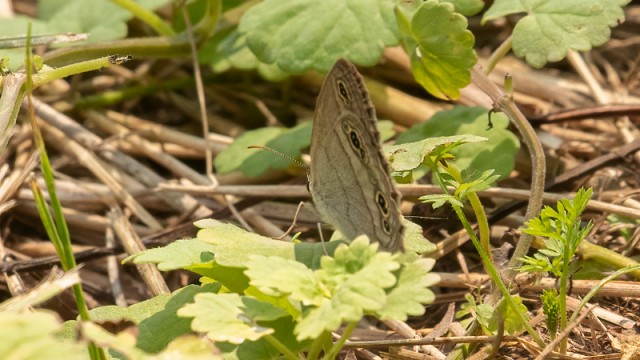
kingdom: Animalia
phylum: Arthropoda
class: Insecta
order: Lepidoptera
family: Nymphalidae
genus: Euptychia
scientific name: Euptychia cymela
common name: Little Wood Satyr
